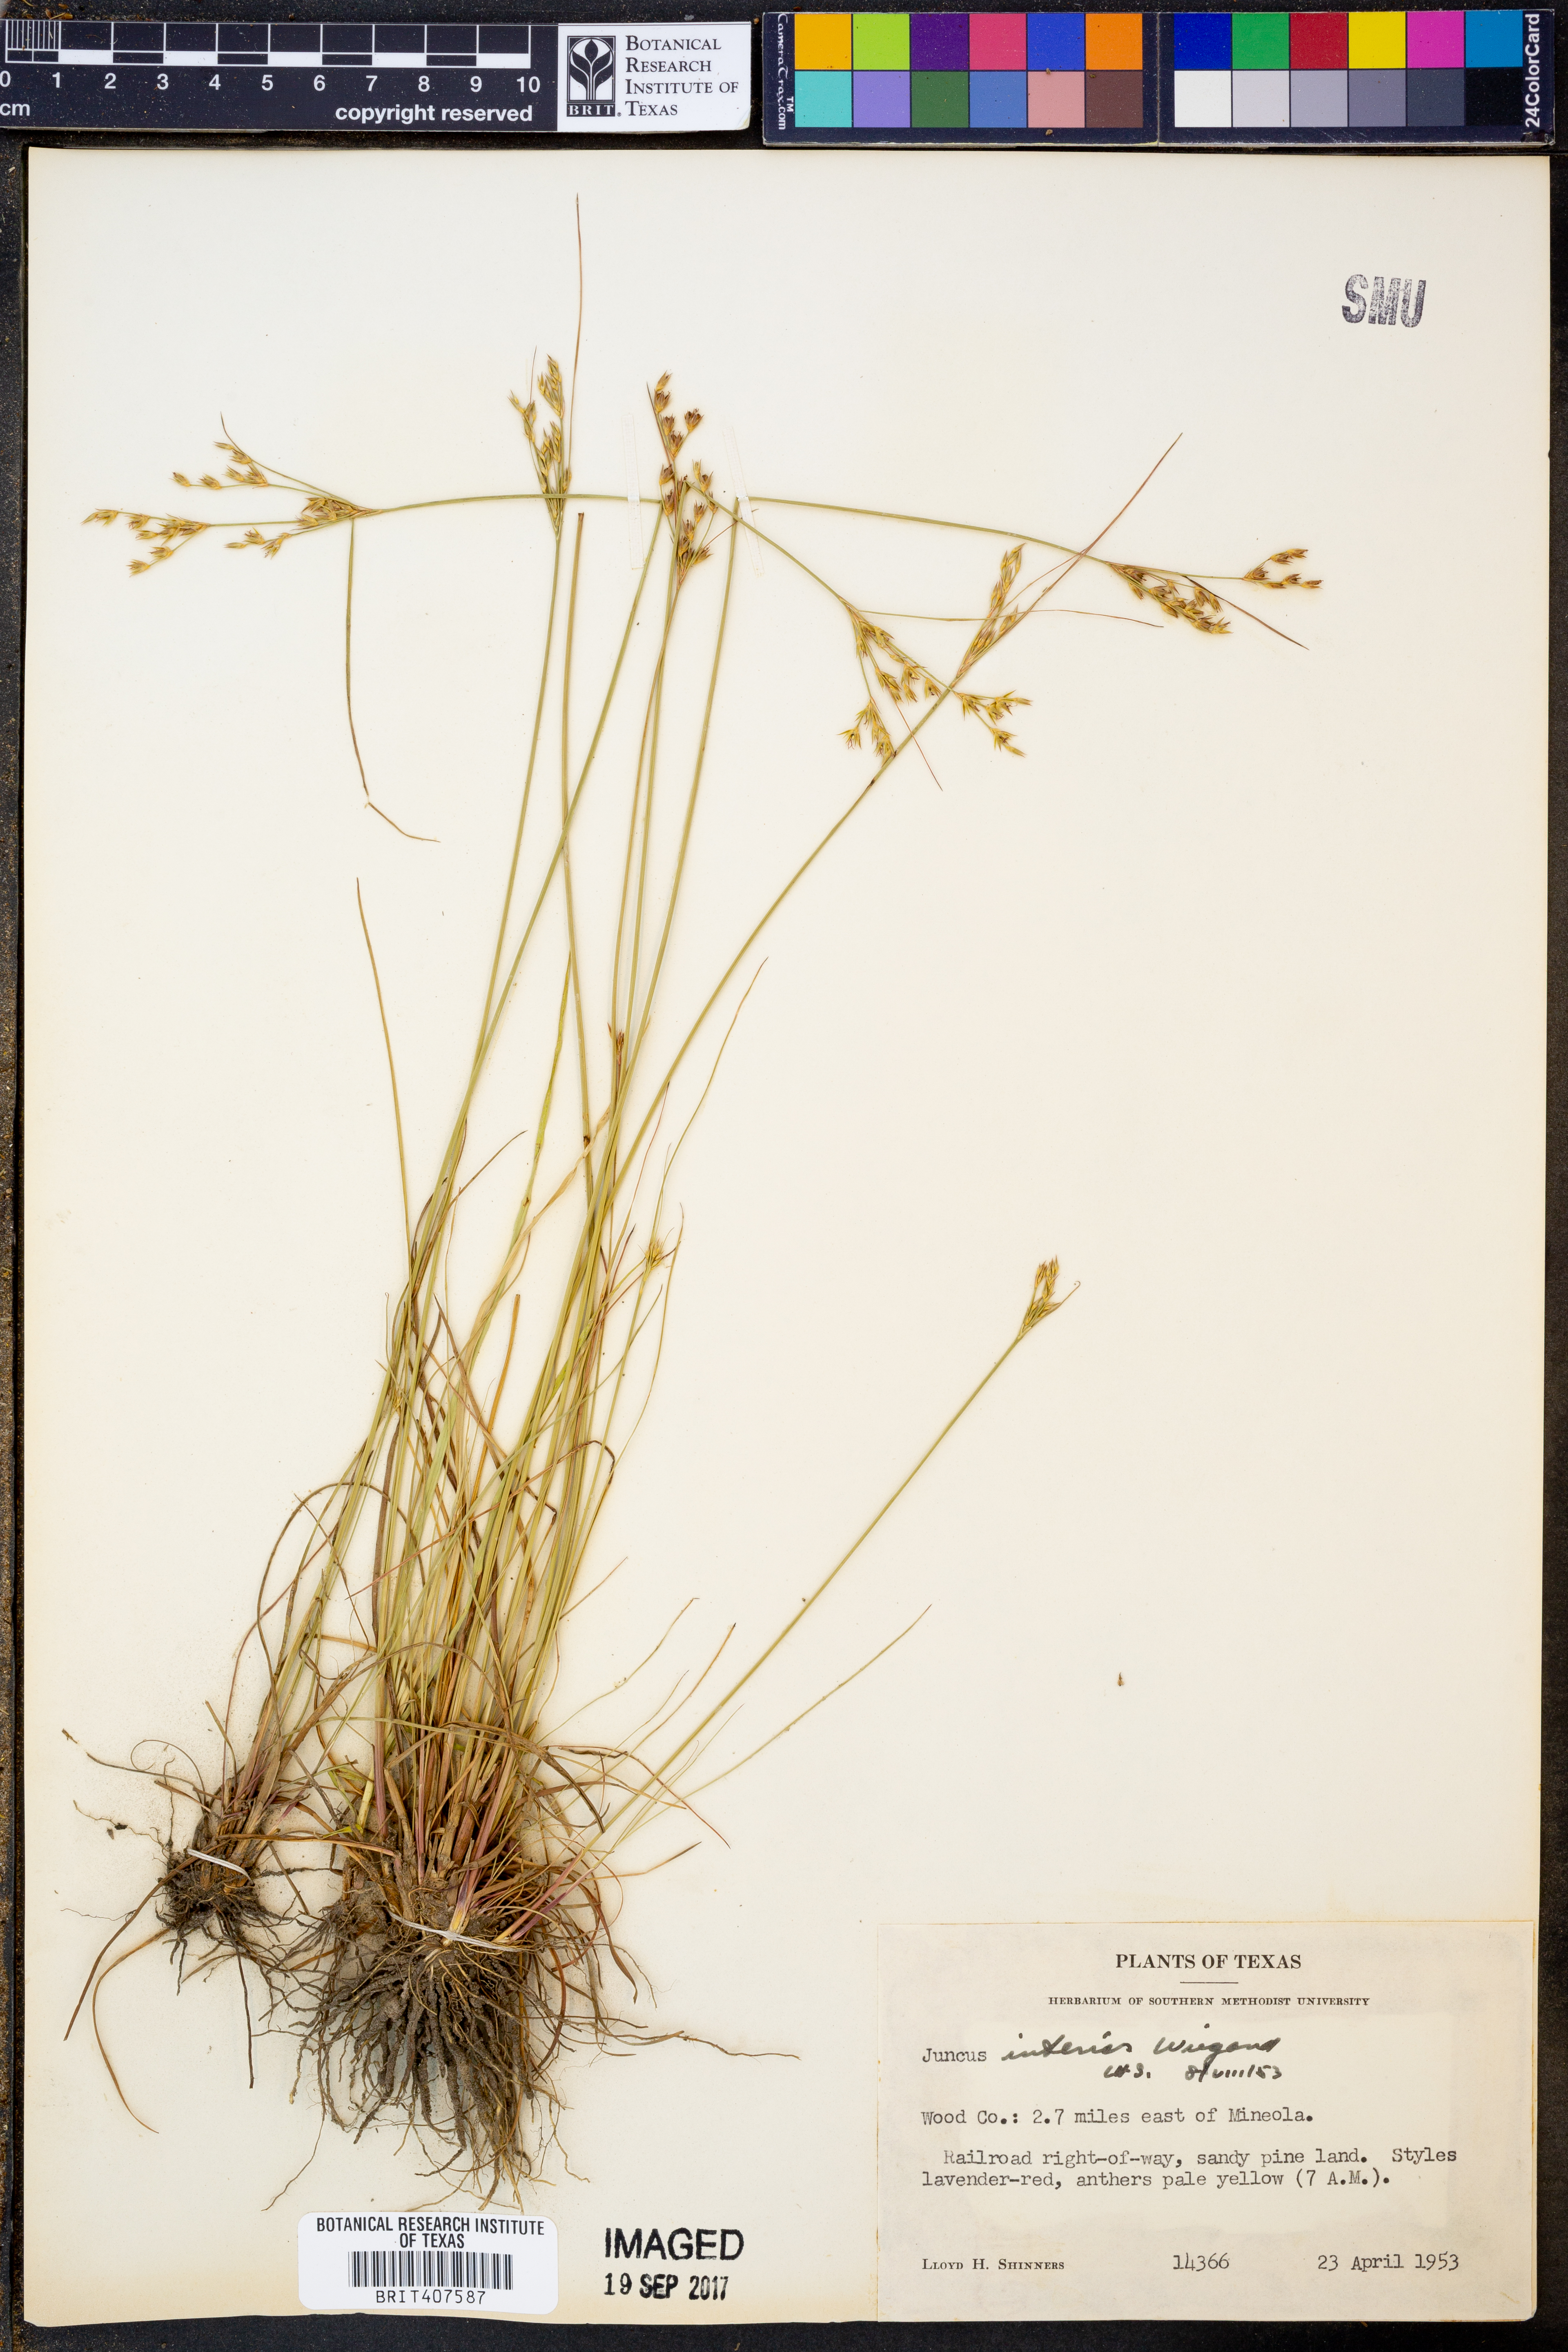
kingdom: Plantae
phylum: Tracheophyta
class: Liliopsida
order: Poales
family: Juncaceae
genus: Juncus
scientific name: Juncus interior
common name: Interior rush
